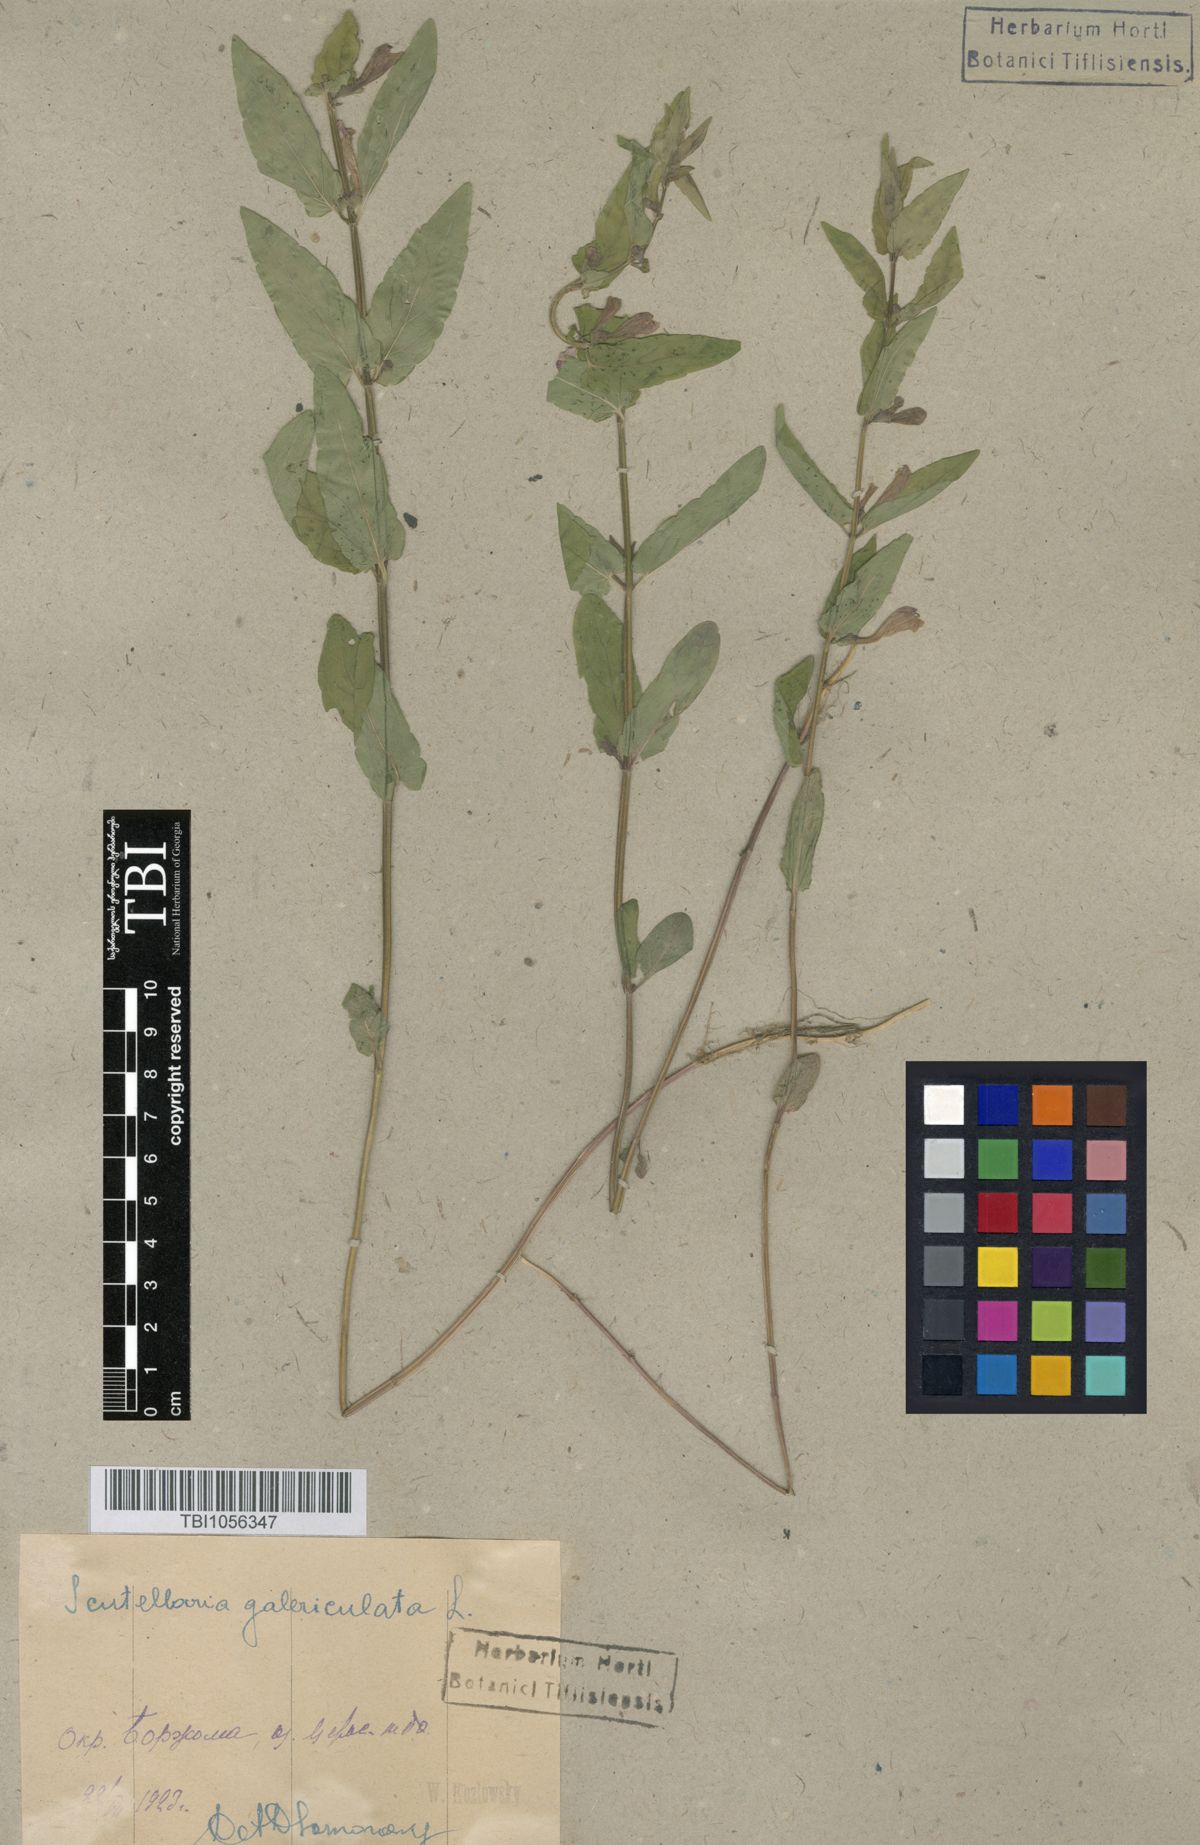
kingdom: Plantae
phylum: Tracheophyta
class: Magnoliopsida
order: Lamiales
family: Lamiaceae
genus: Scutellaria
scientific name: Scutellaria galericulata
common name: Skullcap
